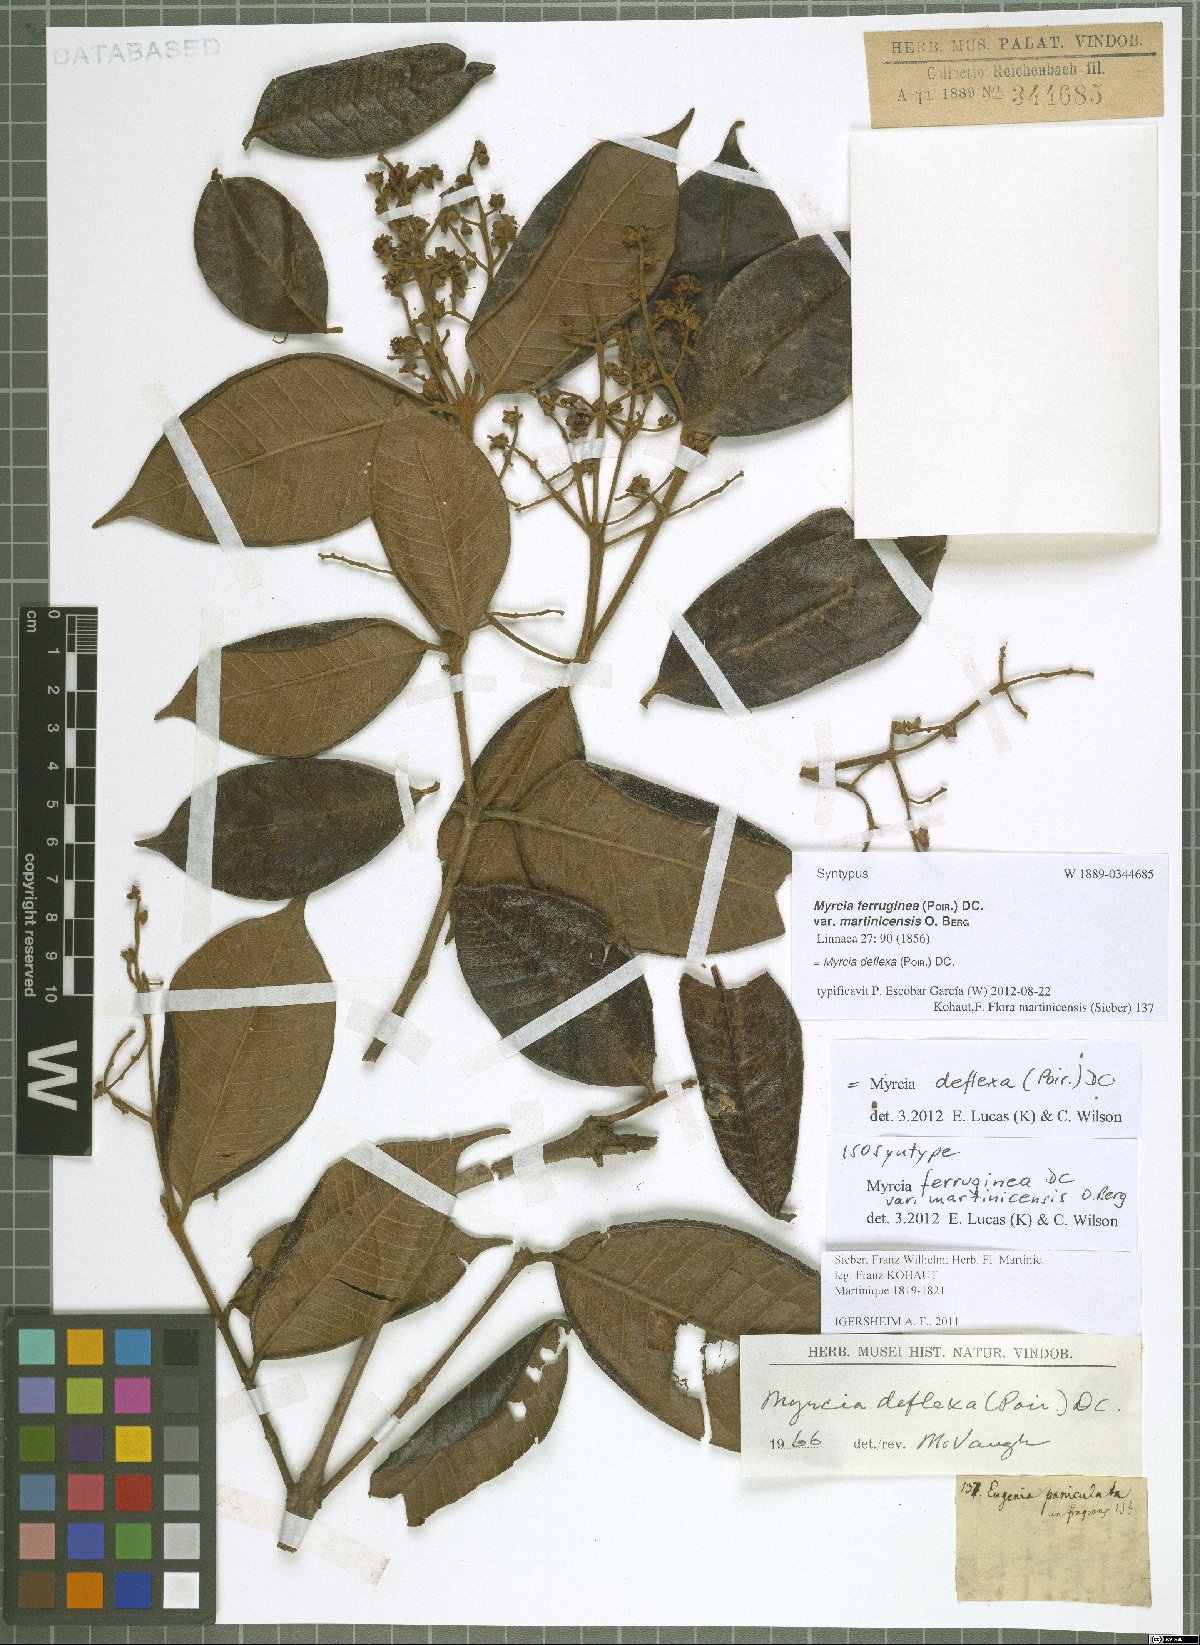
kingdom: Plantae
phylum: Tracheophyta
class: Magnoliopsida
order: Myrtales
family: Myrtaceae
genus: Myrcia
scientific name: Myrcia deflexa
